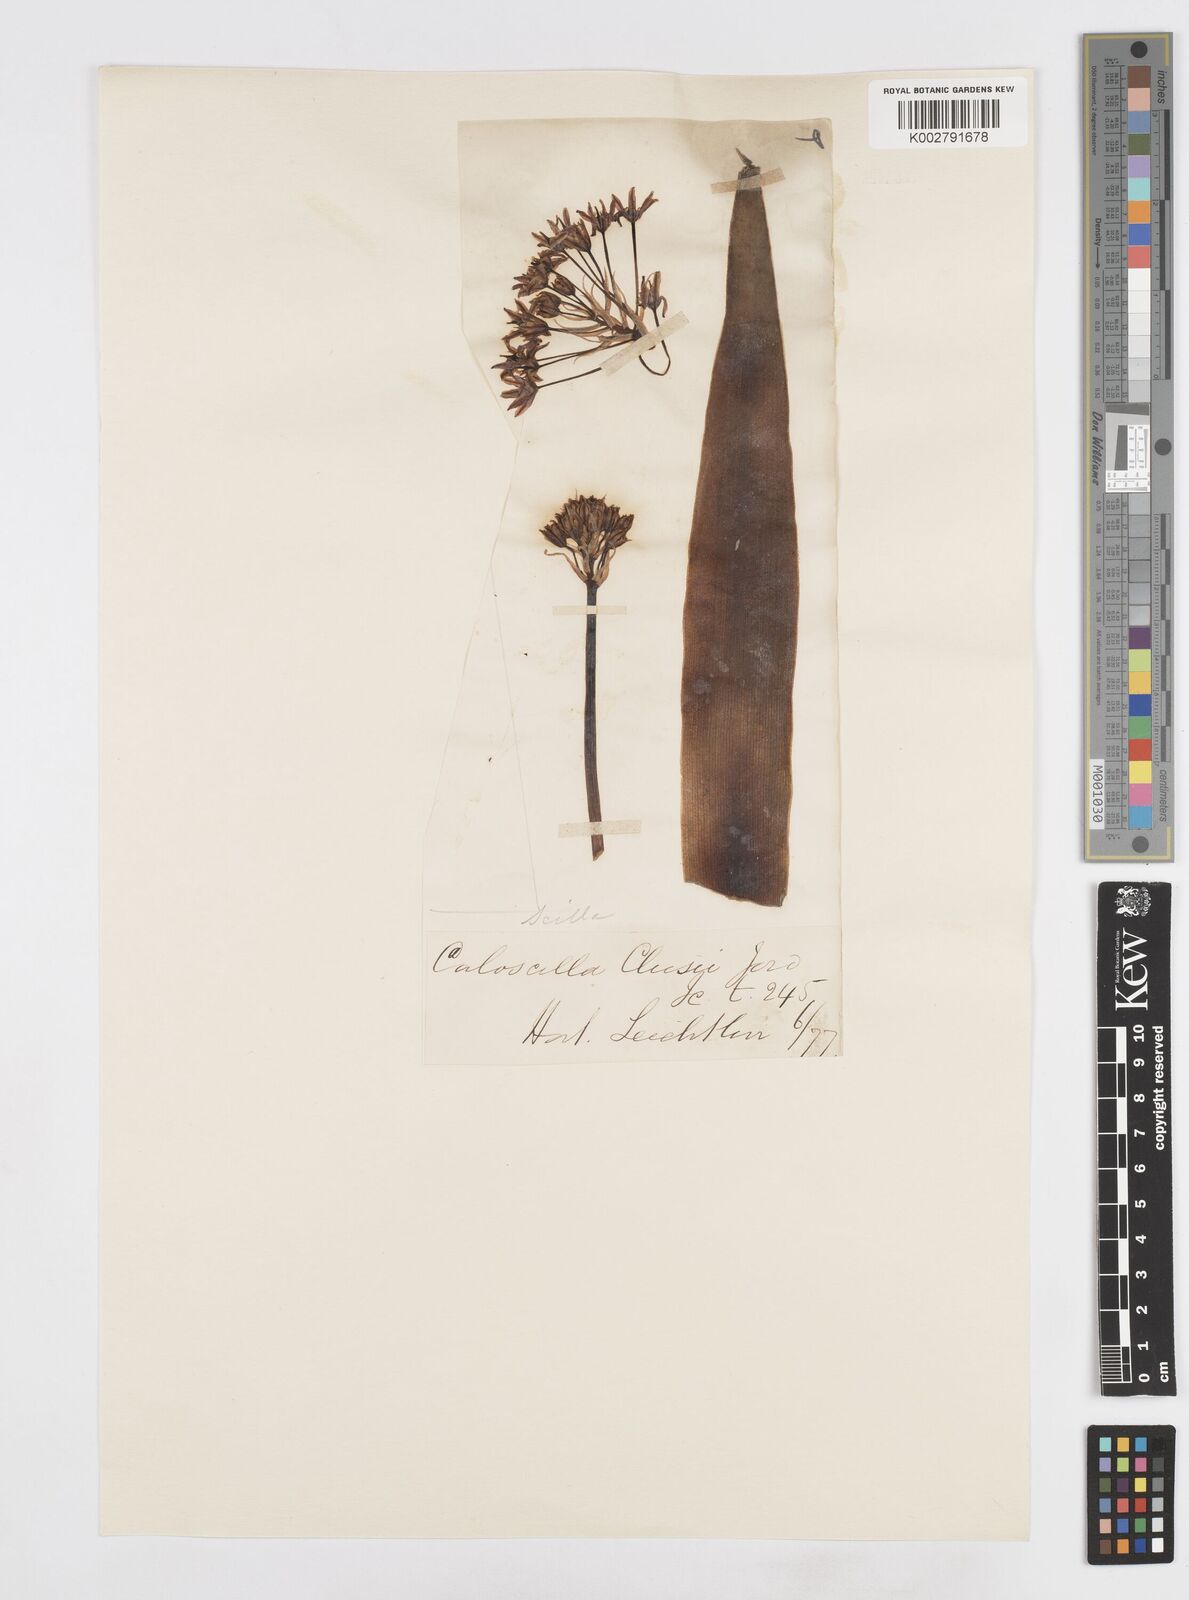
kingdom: Plantae
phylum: Tracheophyta
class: Liliopsida
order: Asparagales
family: Asparagaceae
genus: Scilla
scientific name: Scilla peruviana
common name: Portuguese squill
